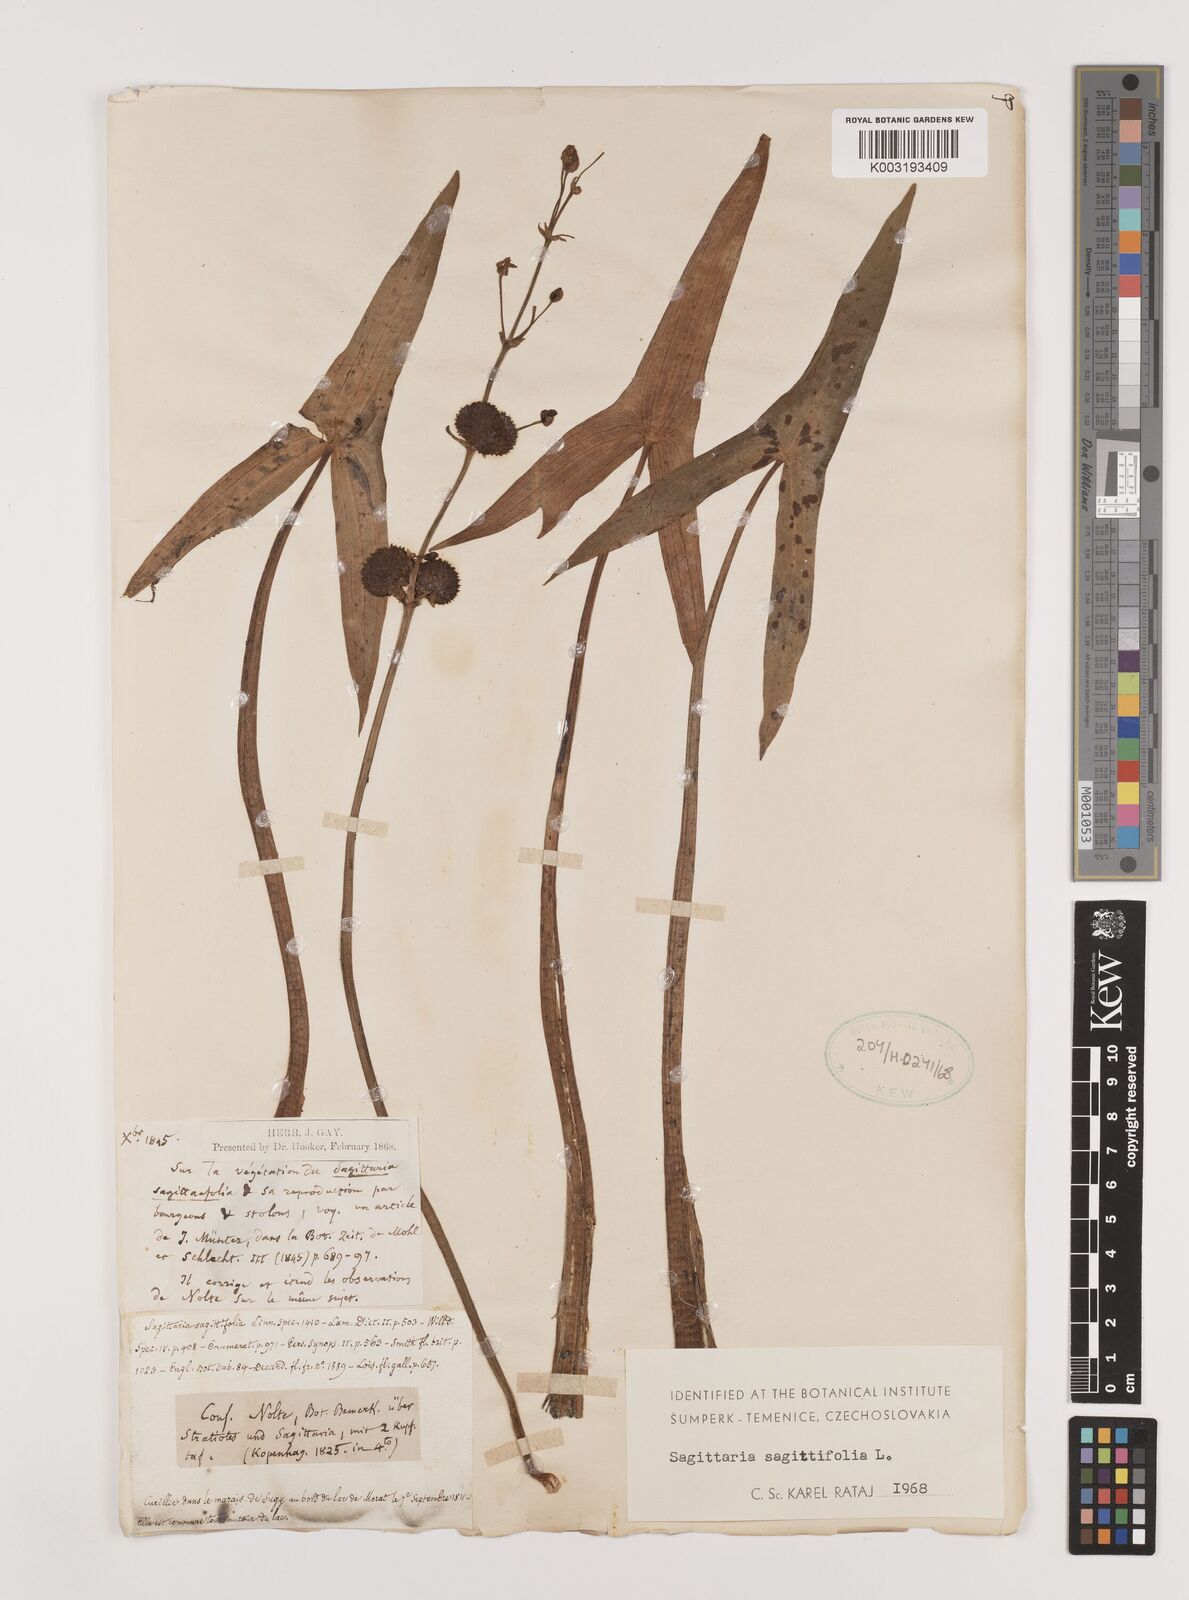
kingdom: Plantae
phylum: Tracheophyta
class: Liliopsida
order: Alismatales
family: Alismataceae
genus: Sagittaria
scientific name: Sagittaria sagittifolia
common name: Arrowhead
